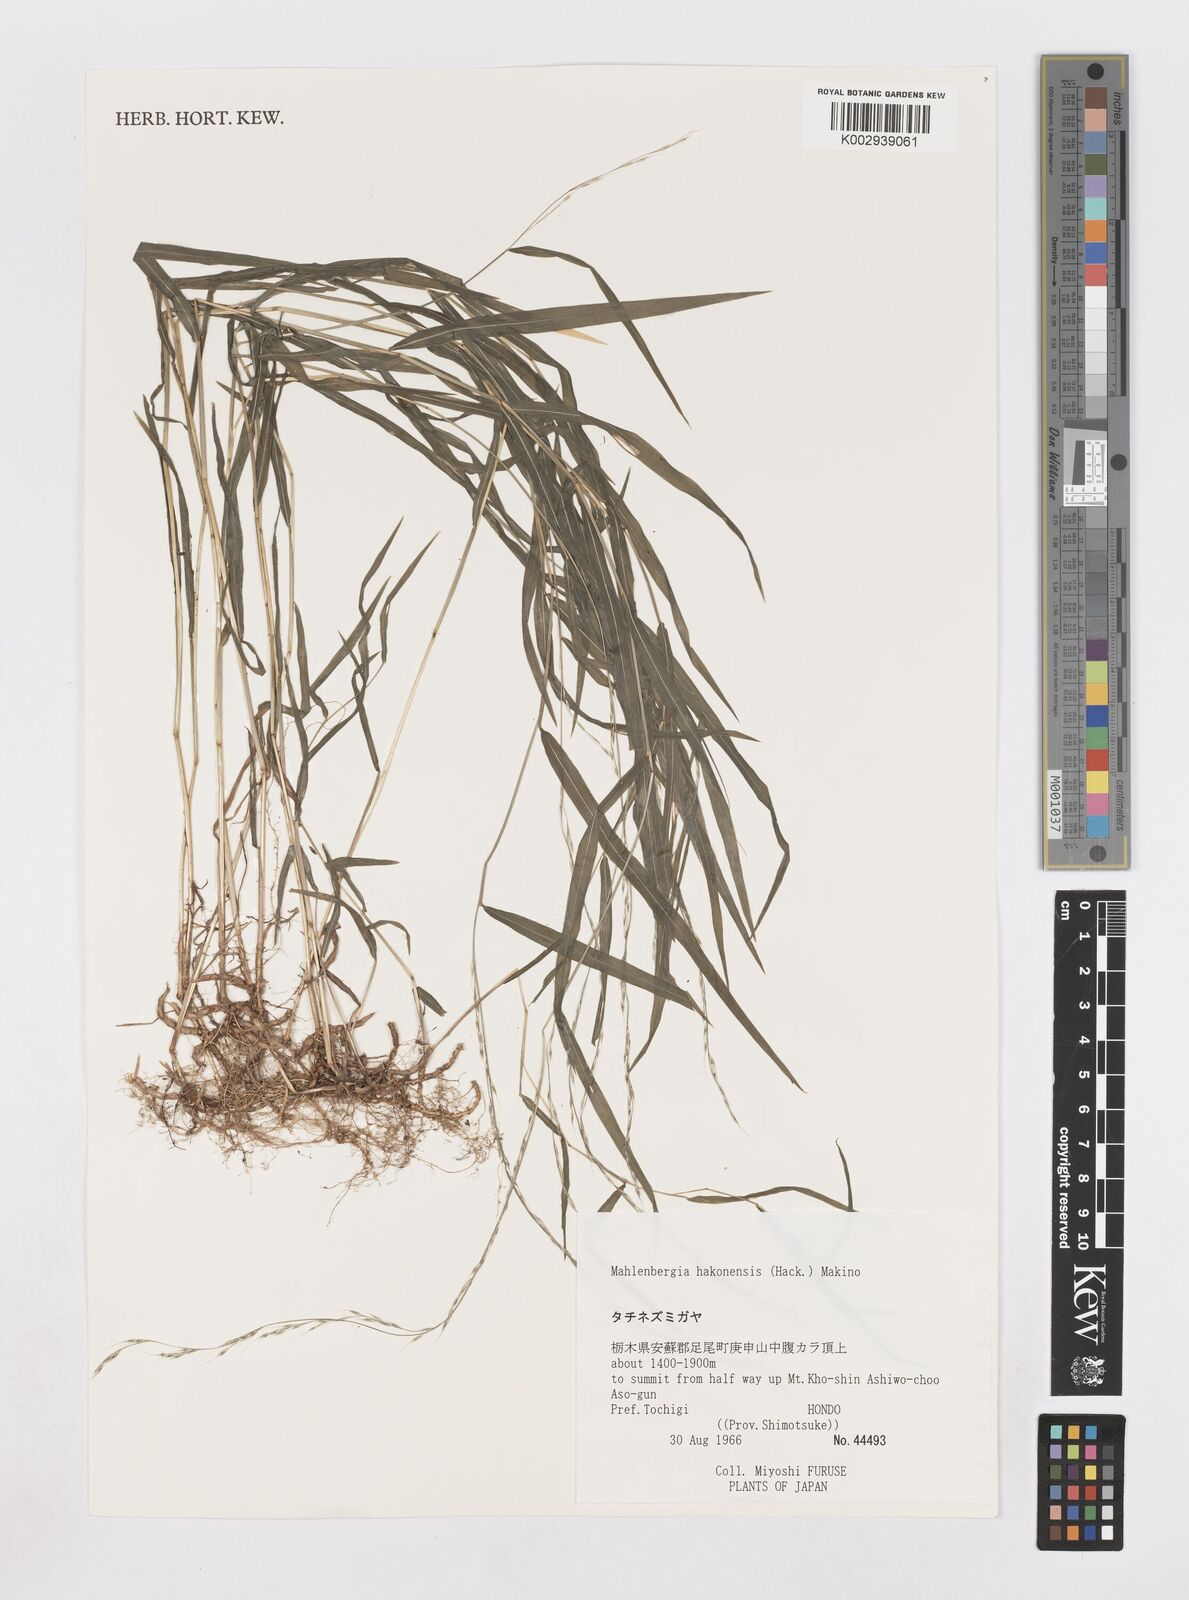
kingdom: Plantae
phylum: Tracheophyta
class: Liliopsida
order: Poales
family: Poaceae
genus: Muhlenbergia
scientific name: Muhlenbergia hakonensis
